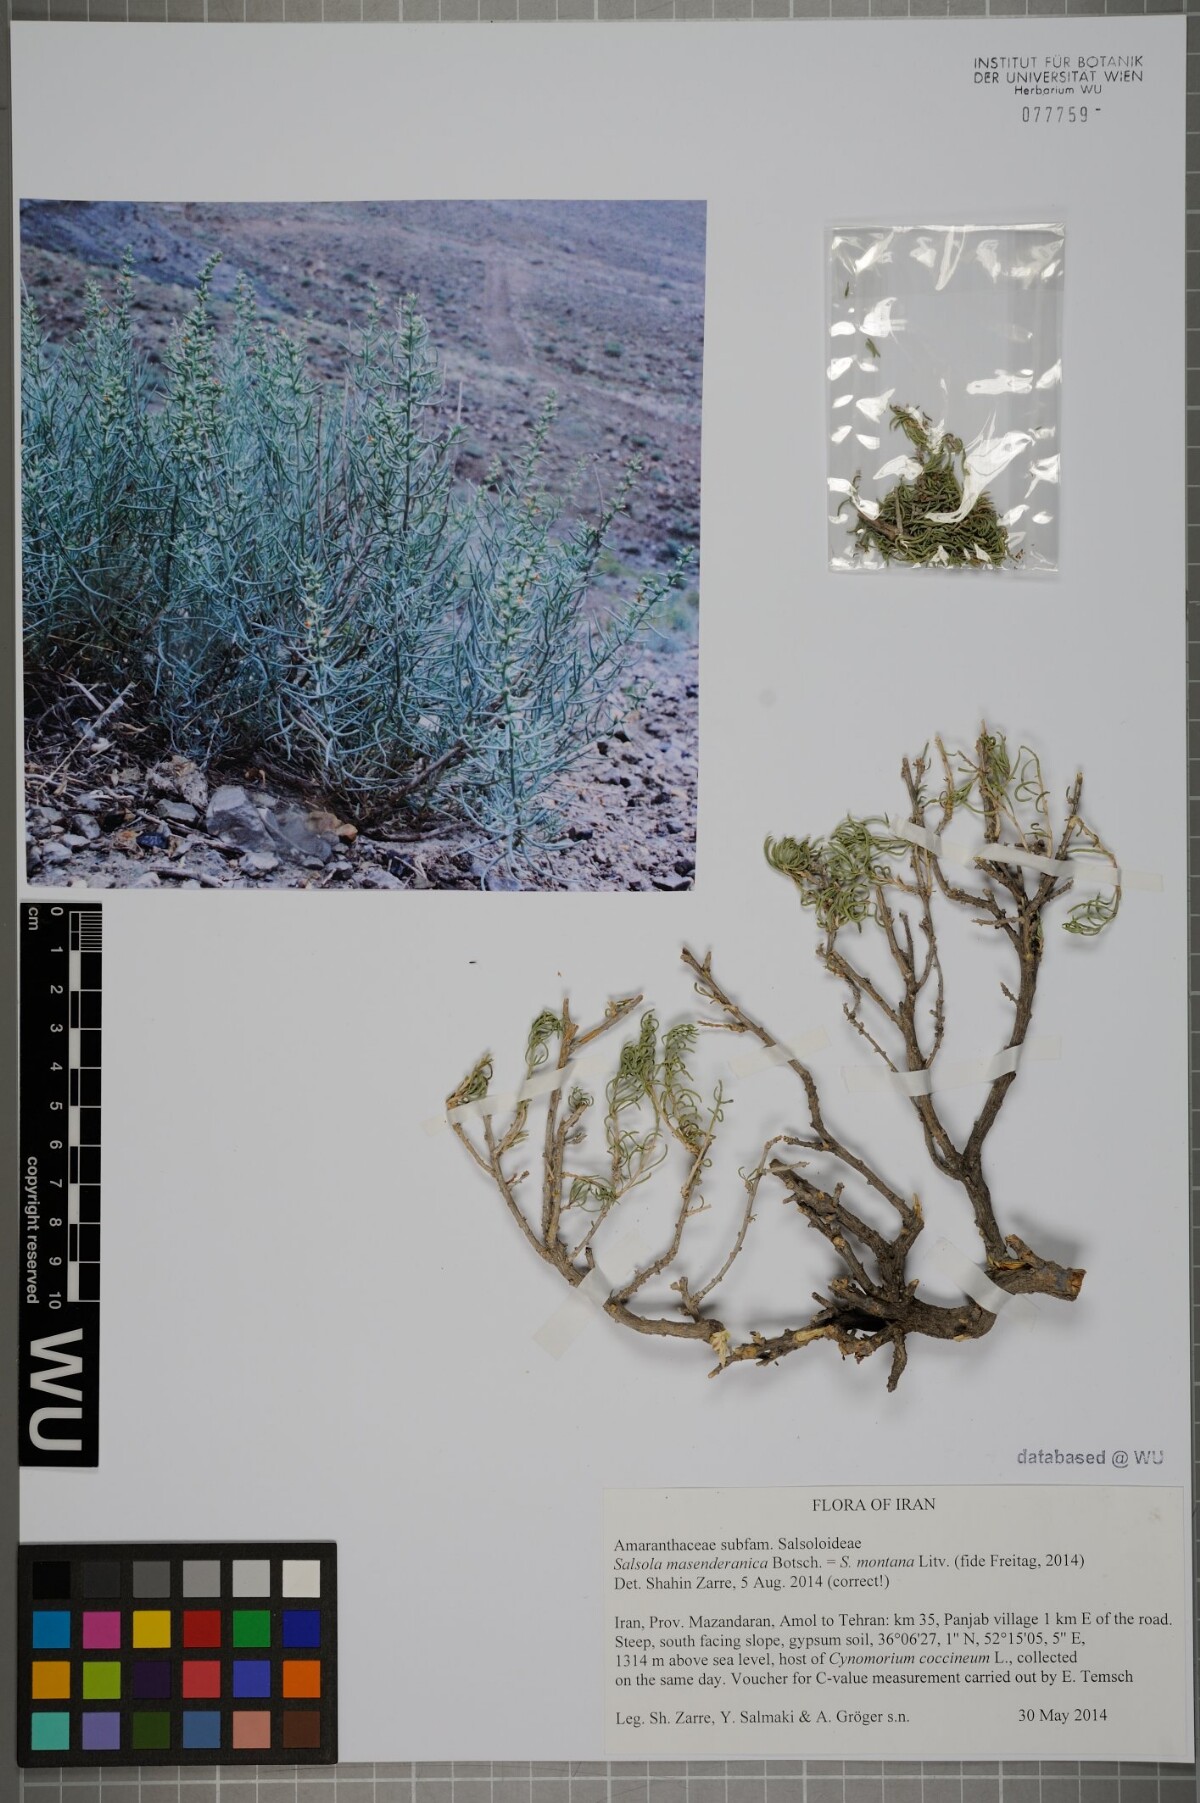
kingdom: Plantae
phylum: Tracheophyta
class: Magnoliopsida
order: Caryophyllales
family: Amaranthaceae
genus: Oreosalsola
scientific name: Oreosalsola masenderanica
